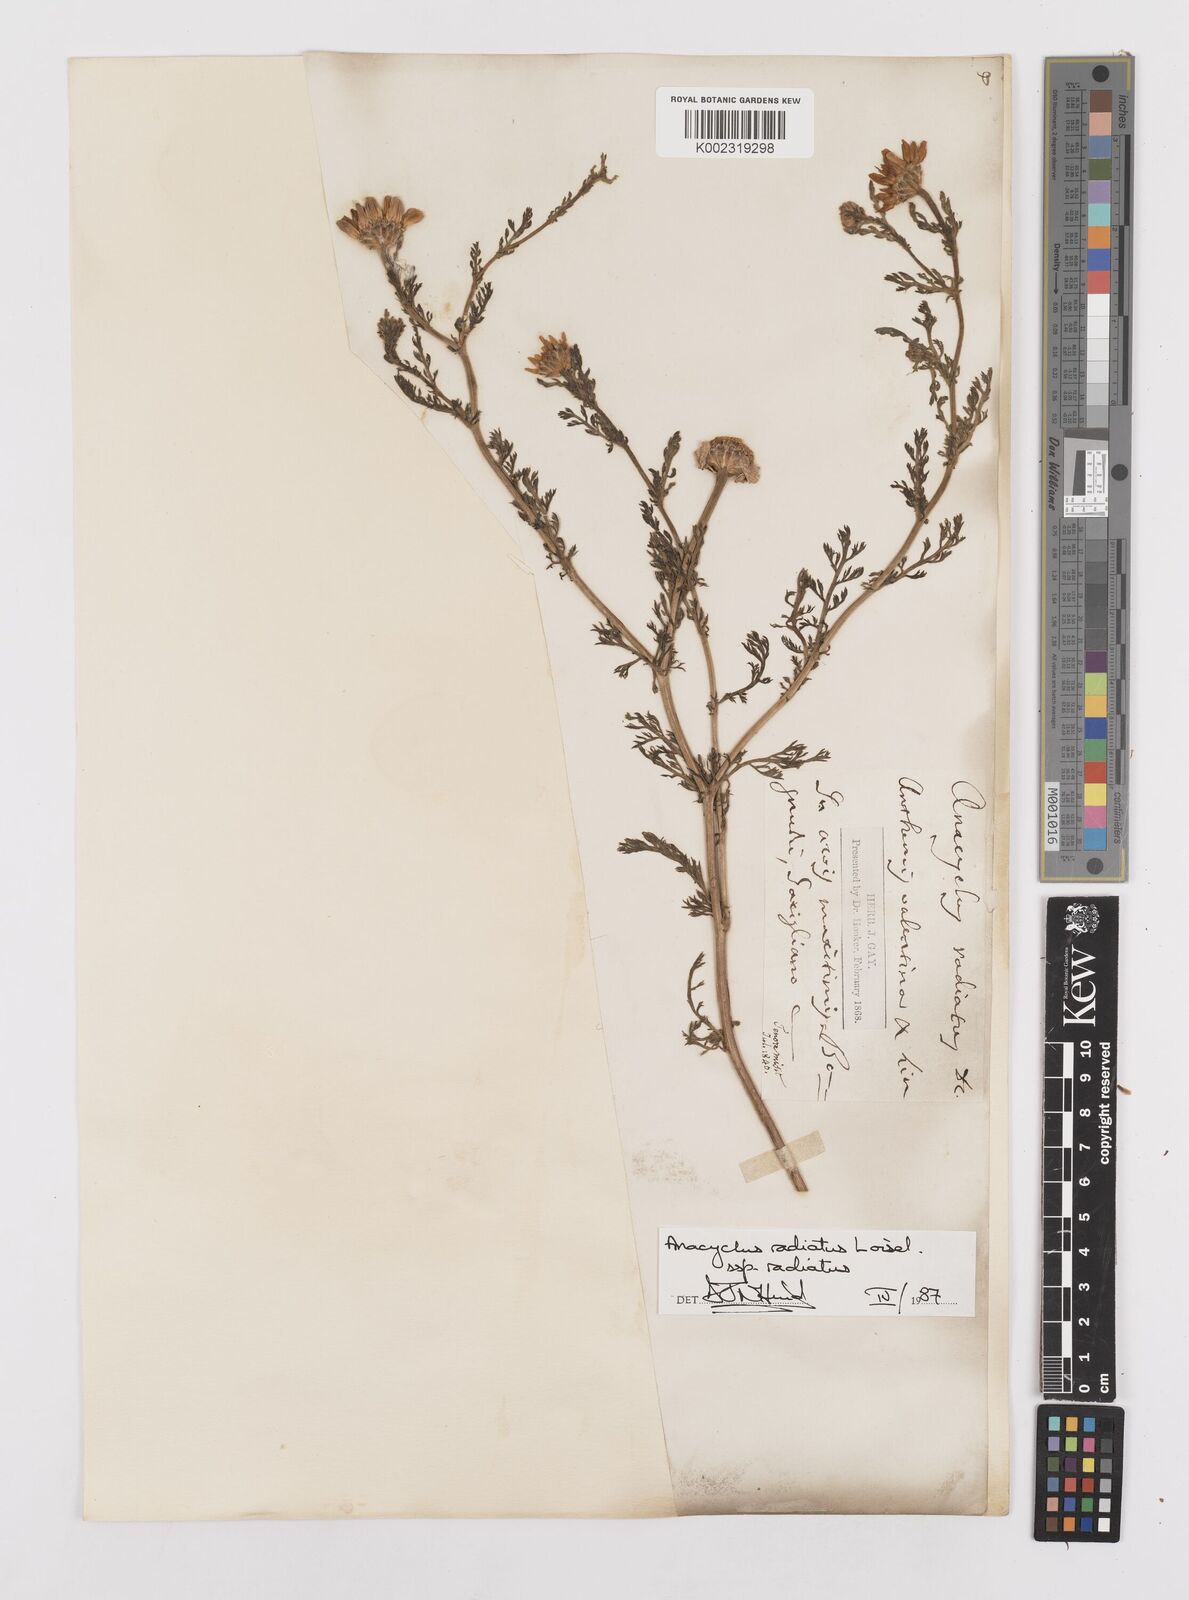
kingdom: Plantae
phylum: Tracheophyta
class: Magnoliopsida
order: Asterales
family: Asteraceae
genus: Anacyclus
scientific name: Anacyclus radiatus
